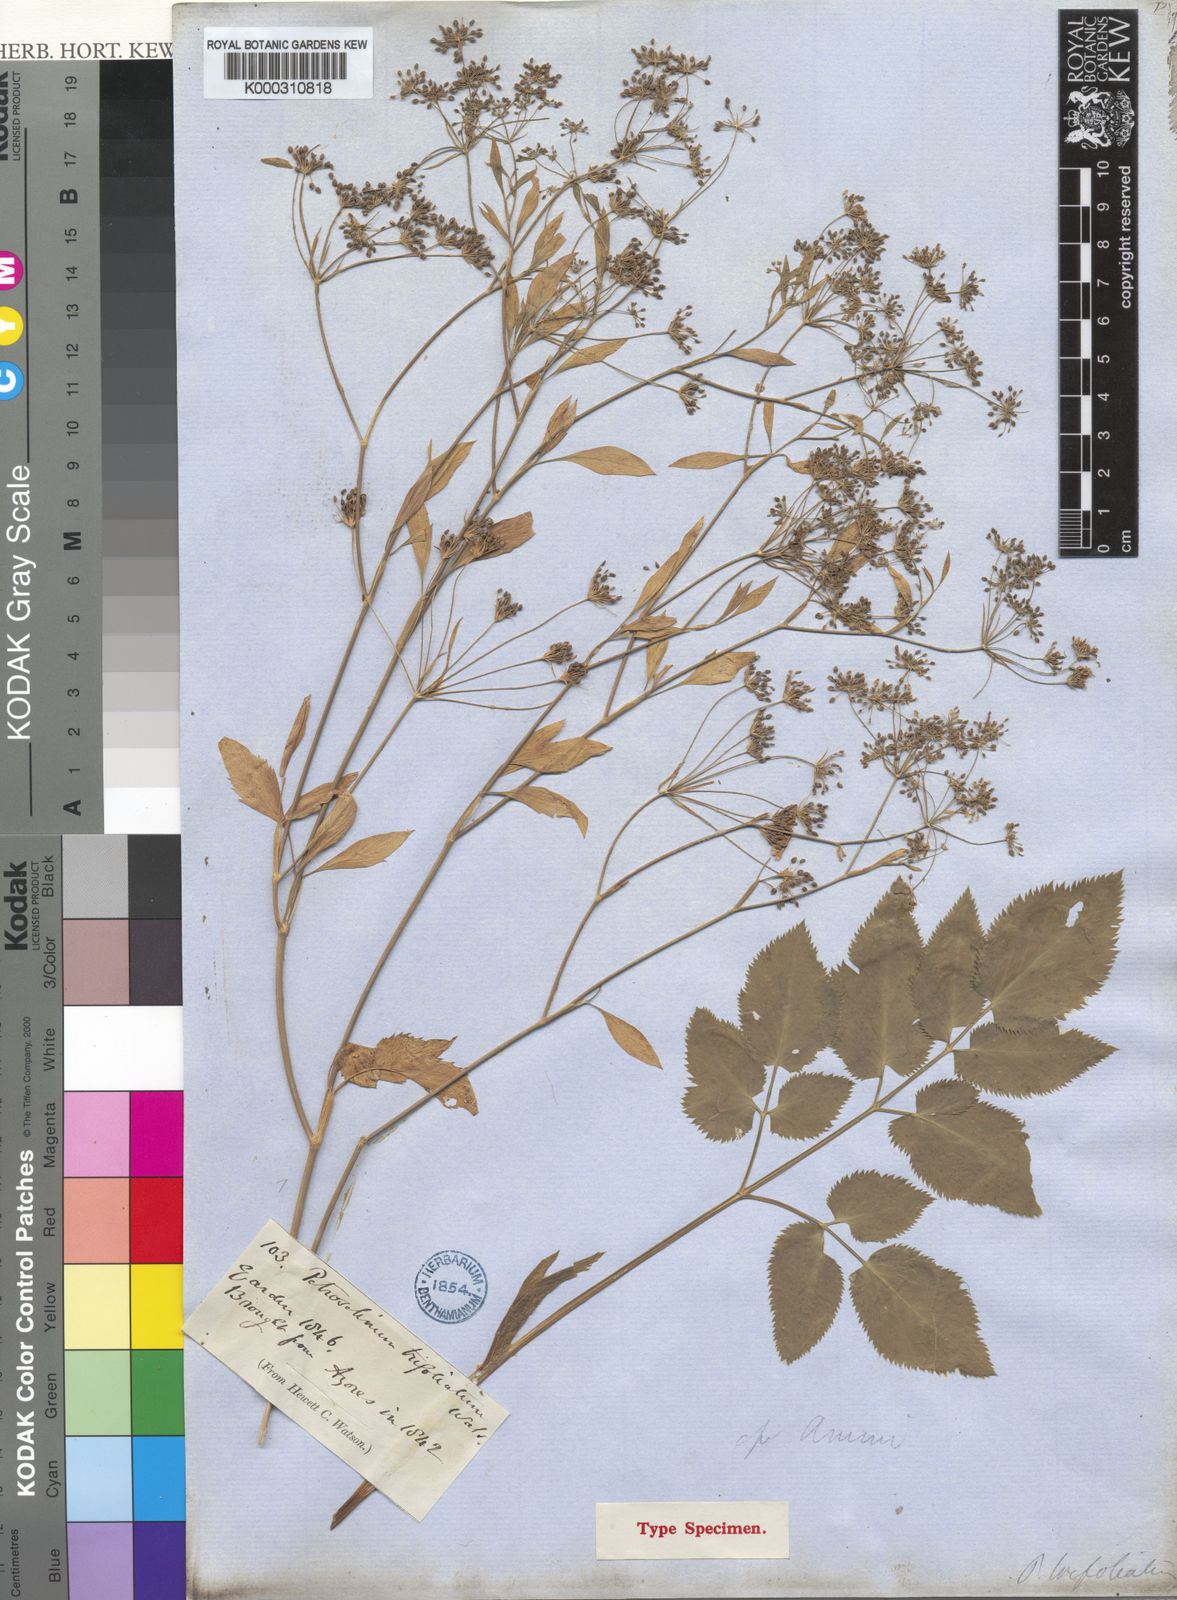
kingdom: Plantae
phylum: Tracheophyta
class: Magnoliopsida
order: Apiales
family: Apiaceae
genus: Ammi
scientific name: Ammi trifoliatum
